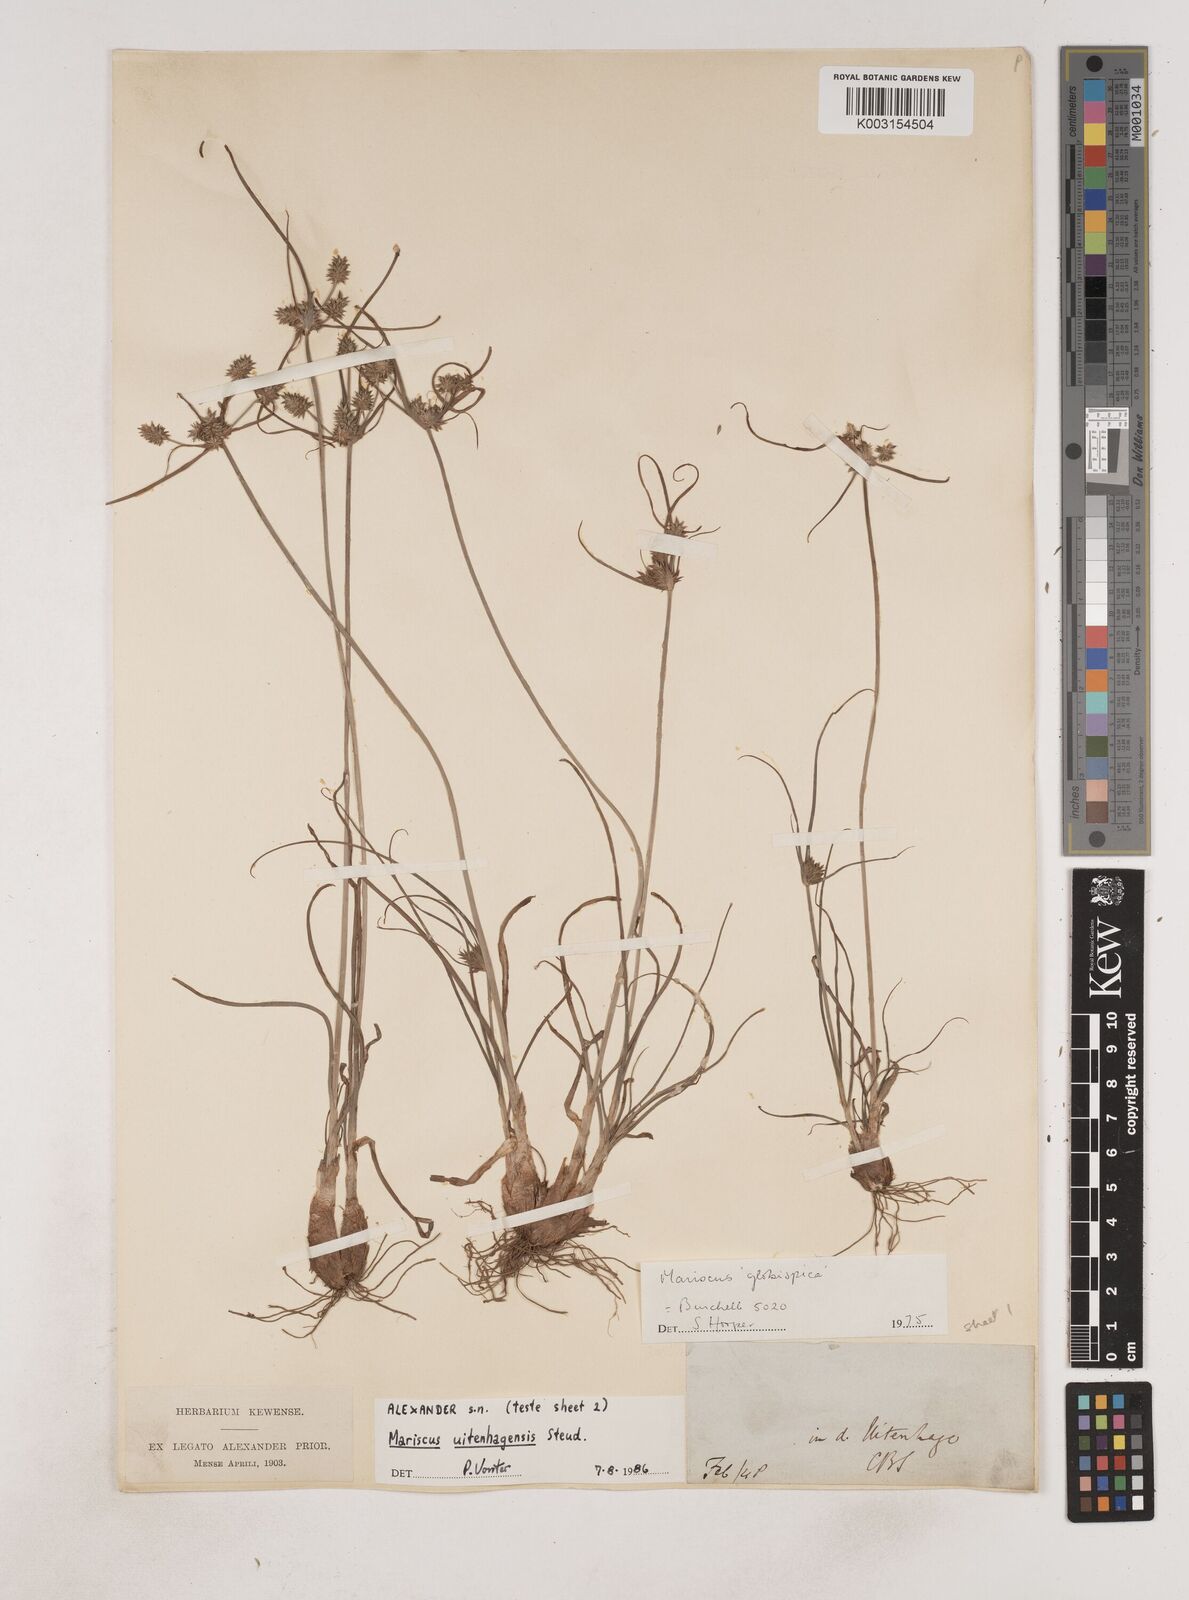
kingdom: Plantae
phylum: Tracheophyta
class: Liliopsida
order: Poales
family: Cyperaceae
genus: Cyperus
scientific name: Cyperus capensis
